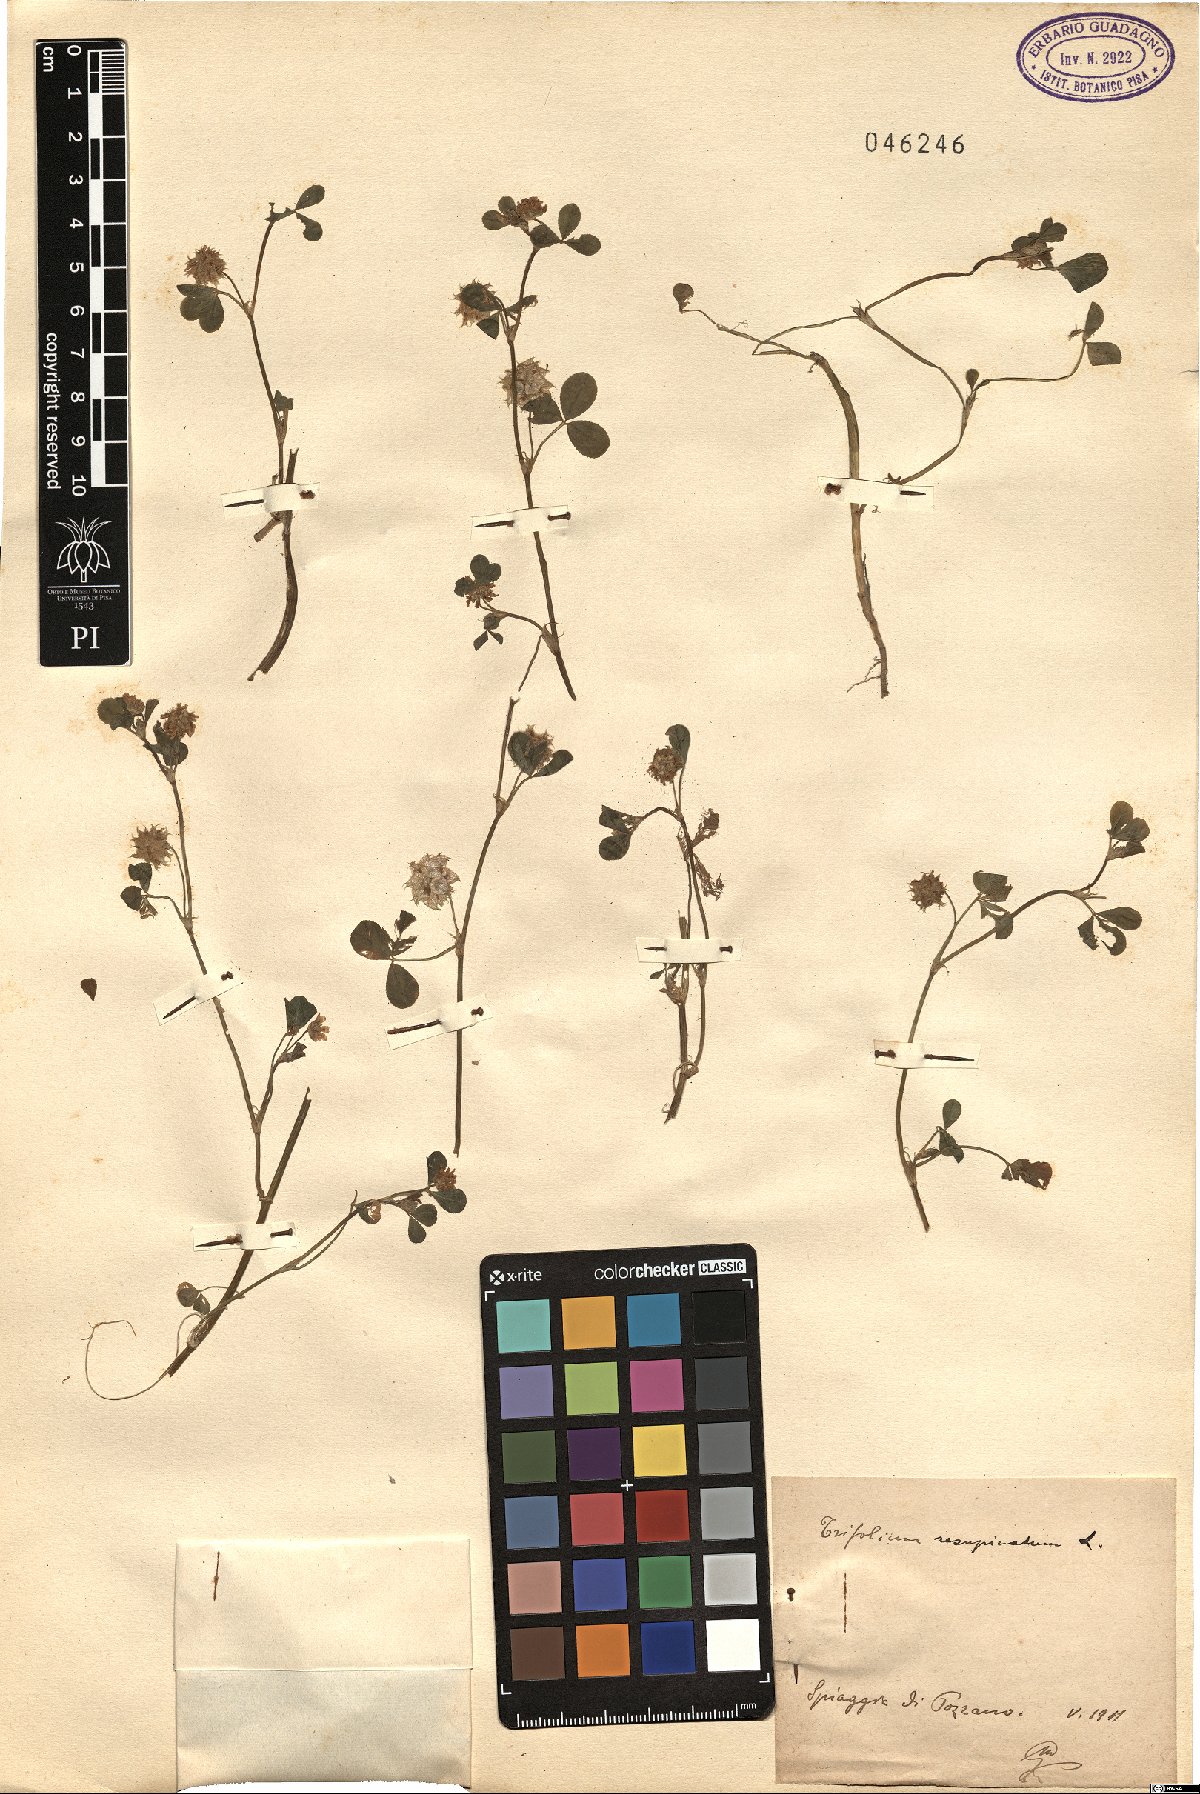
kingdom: Plantae
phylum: Tracheophyta
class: Magnoliopsida
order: Fabales
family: Fabaceae
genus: Trifolium
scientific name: Trifolium resupinatum
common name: Reversed clover
